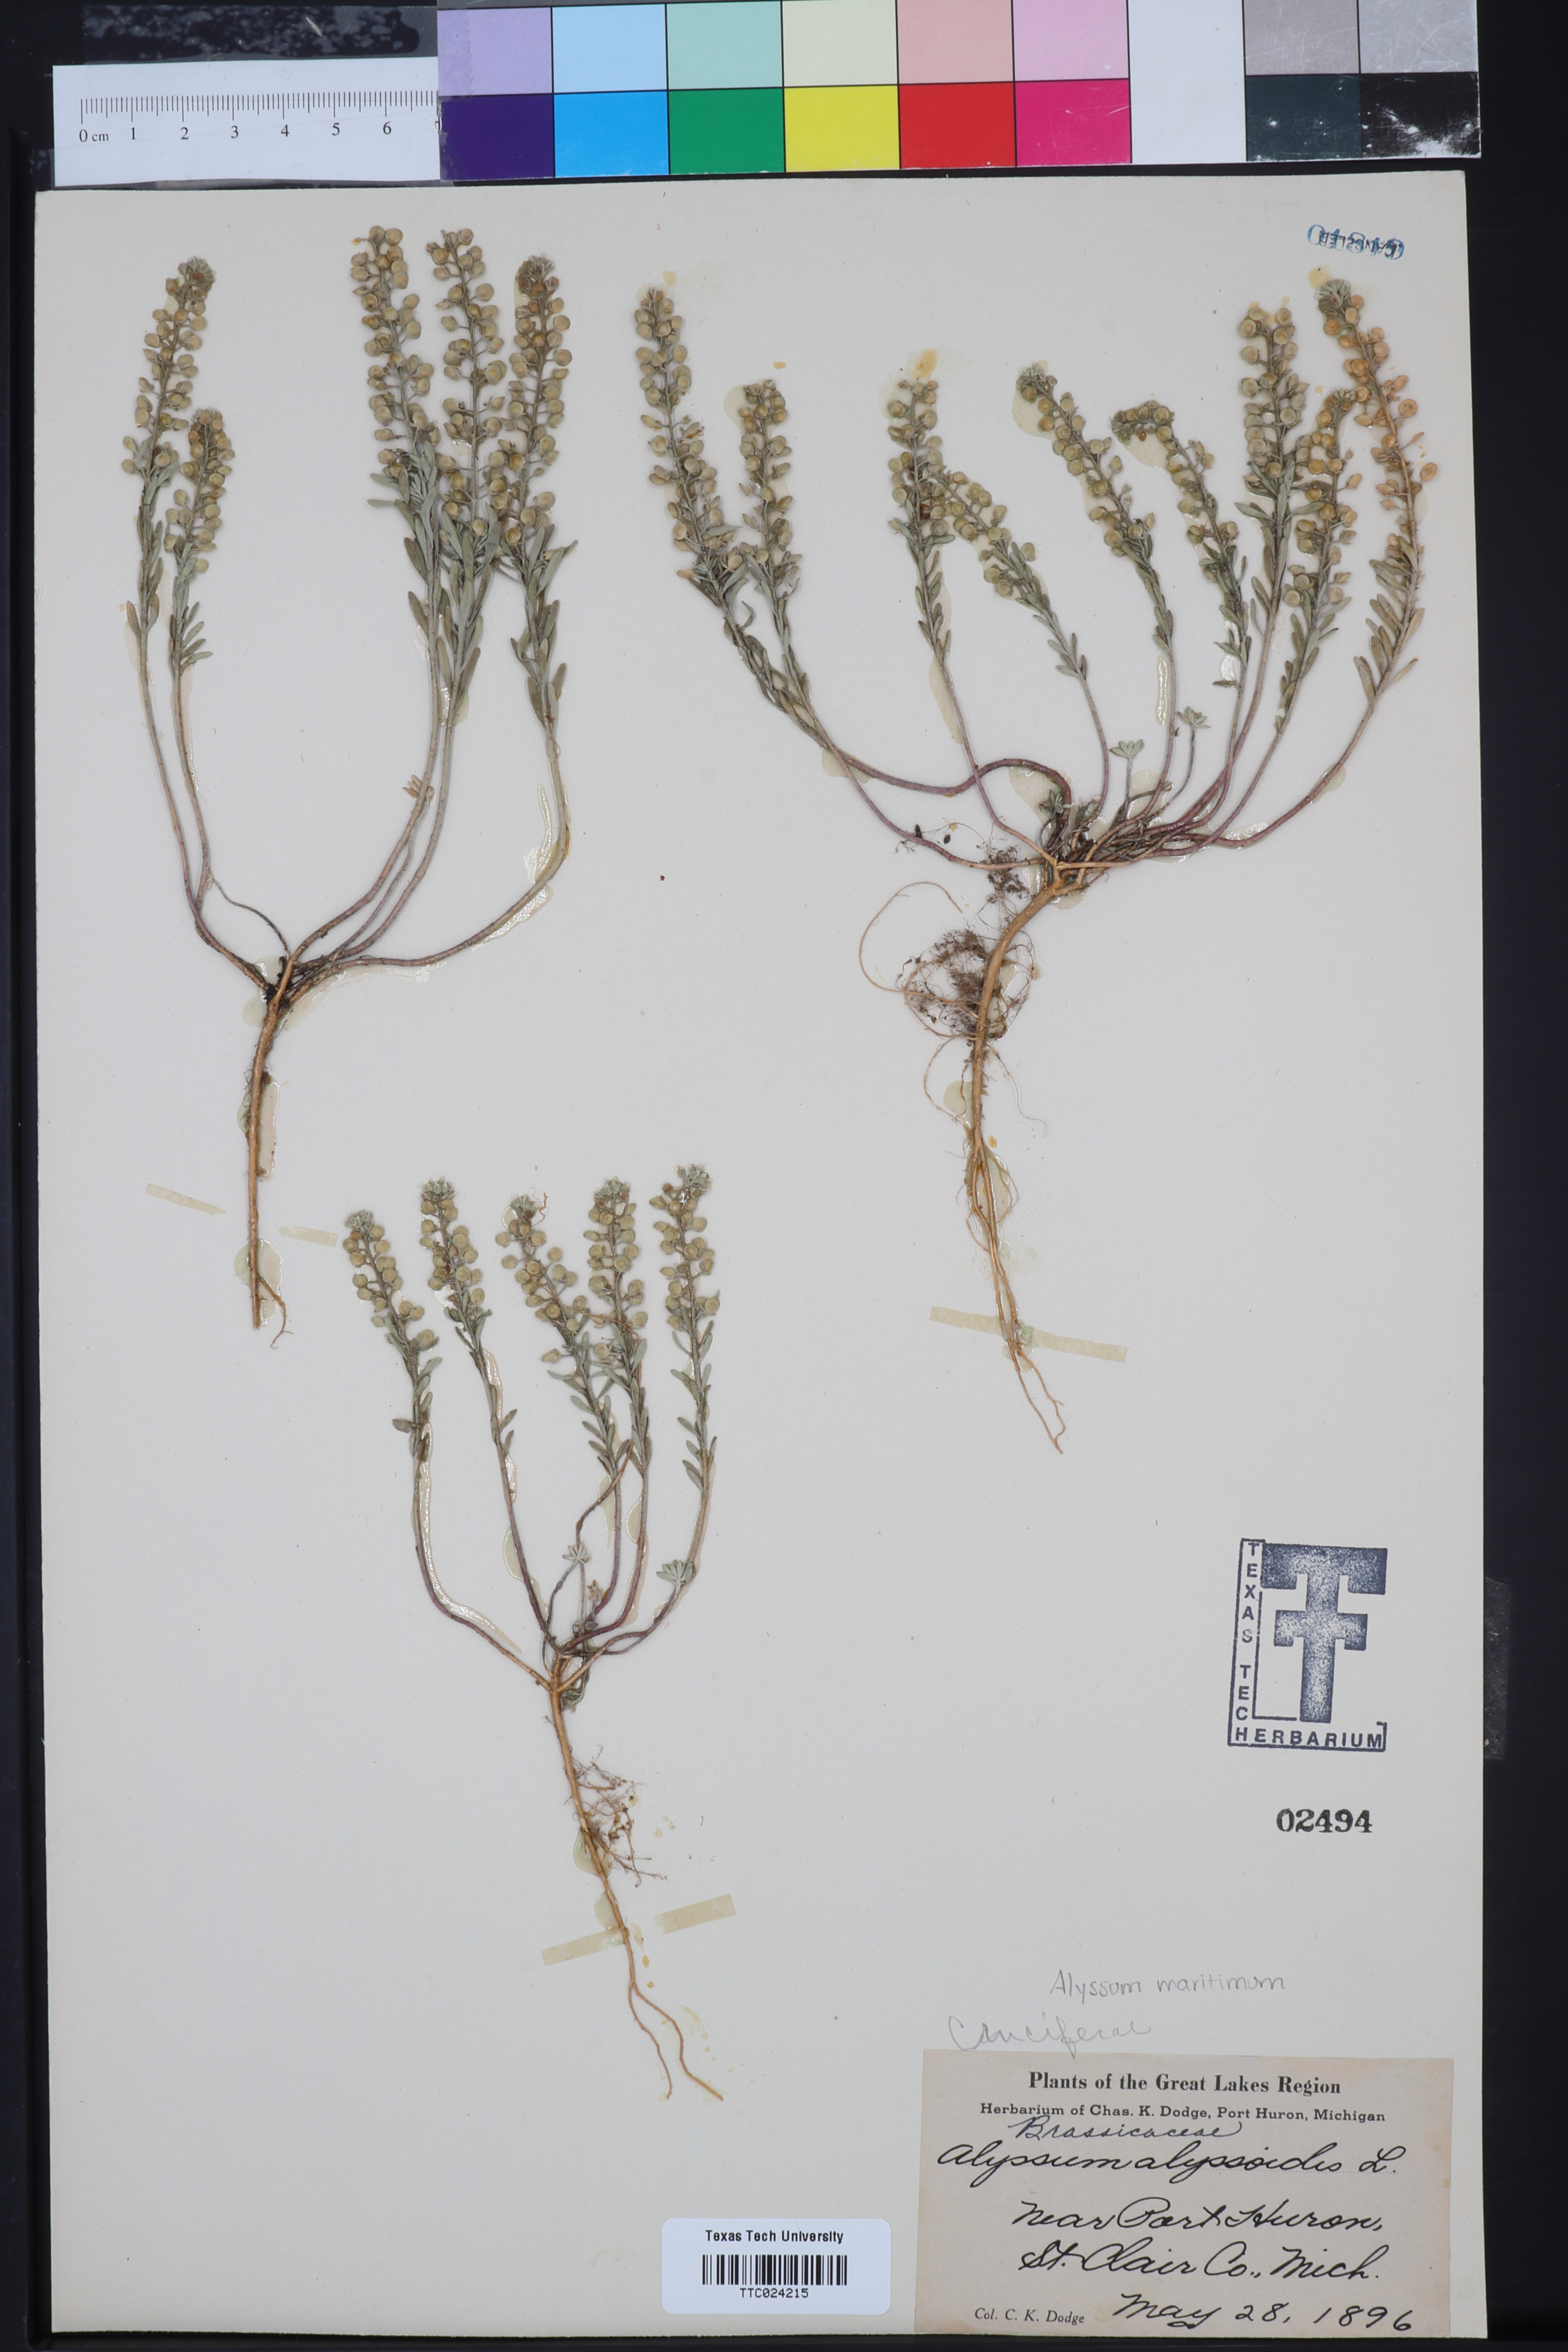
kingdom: Plantae
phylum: Tracheophyta
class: Magnoliopsida
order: Brassicales
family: Brassicaceae
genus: Lobularia
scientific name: Lobularia maritima
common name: Sweet alison
